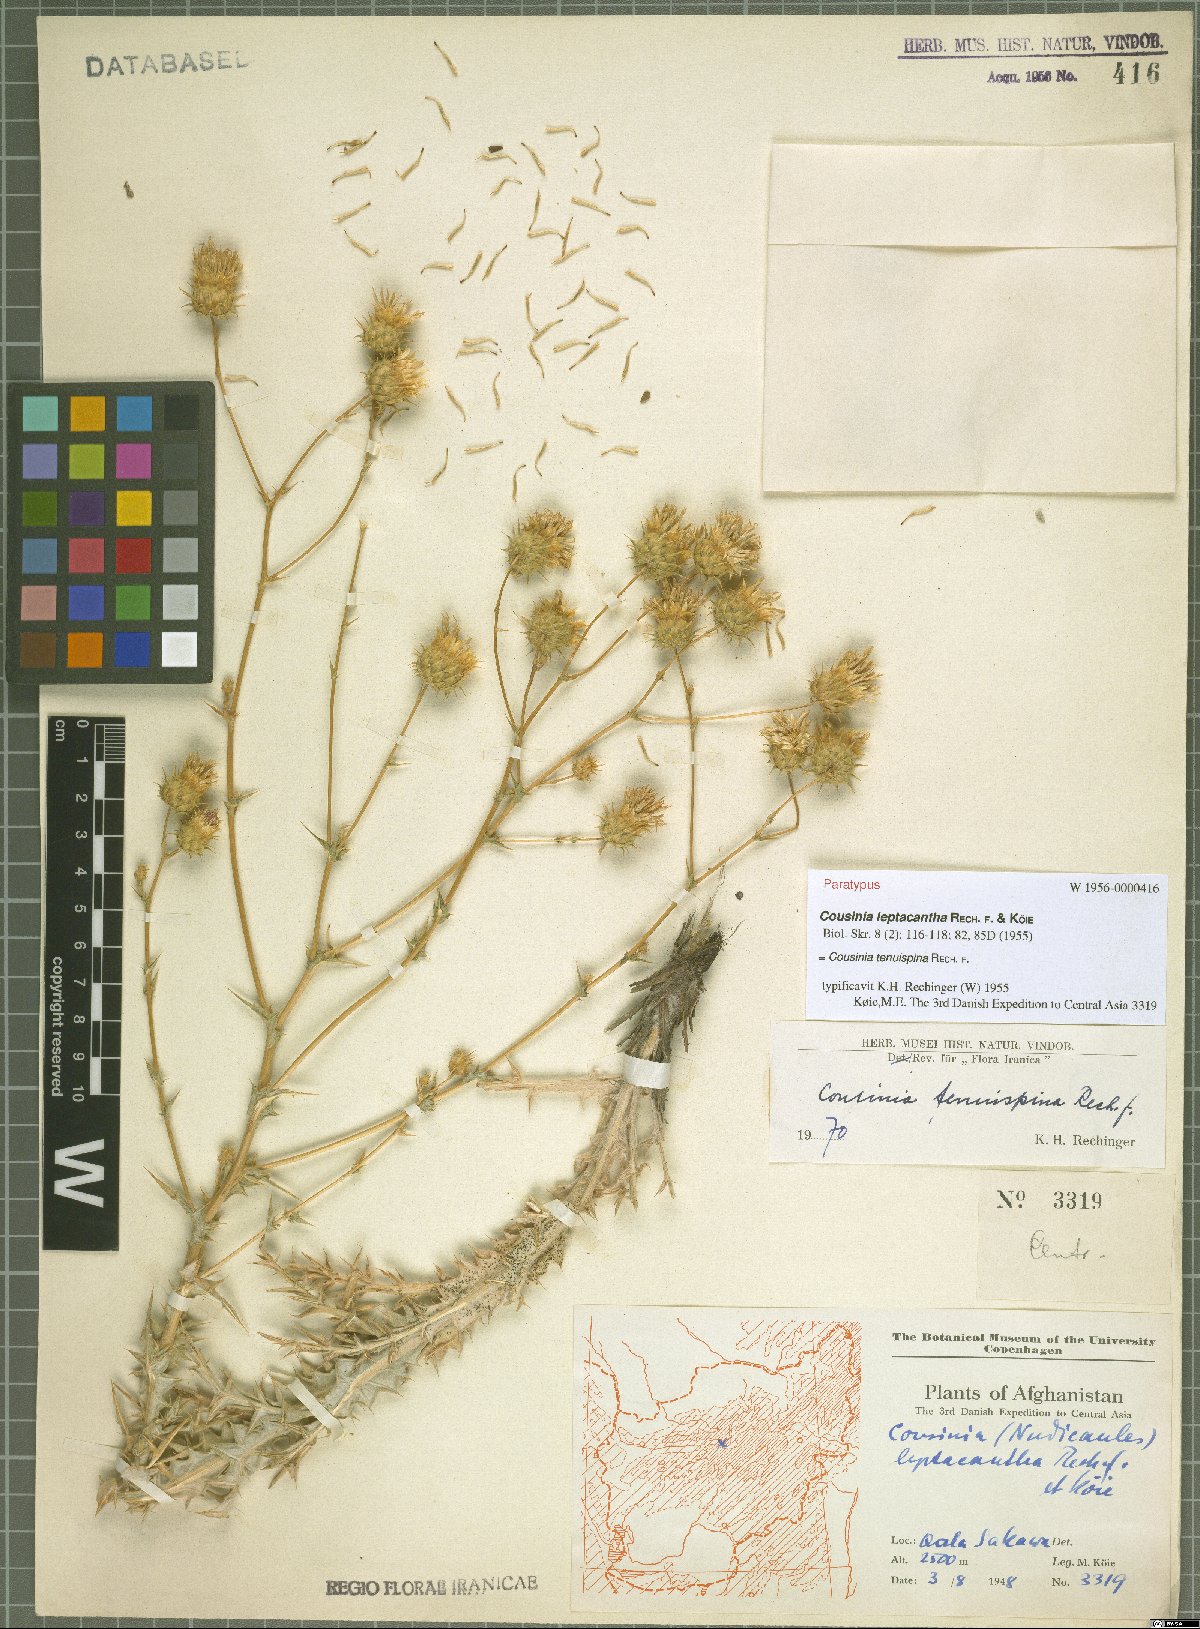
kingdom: Plantae
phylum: Tracheophyta
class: Magnoliopsida
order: Asterales
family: Asteraceae
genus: Cousinia
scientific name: Cousinia tenuispina
